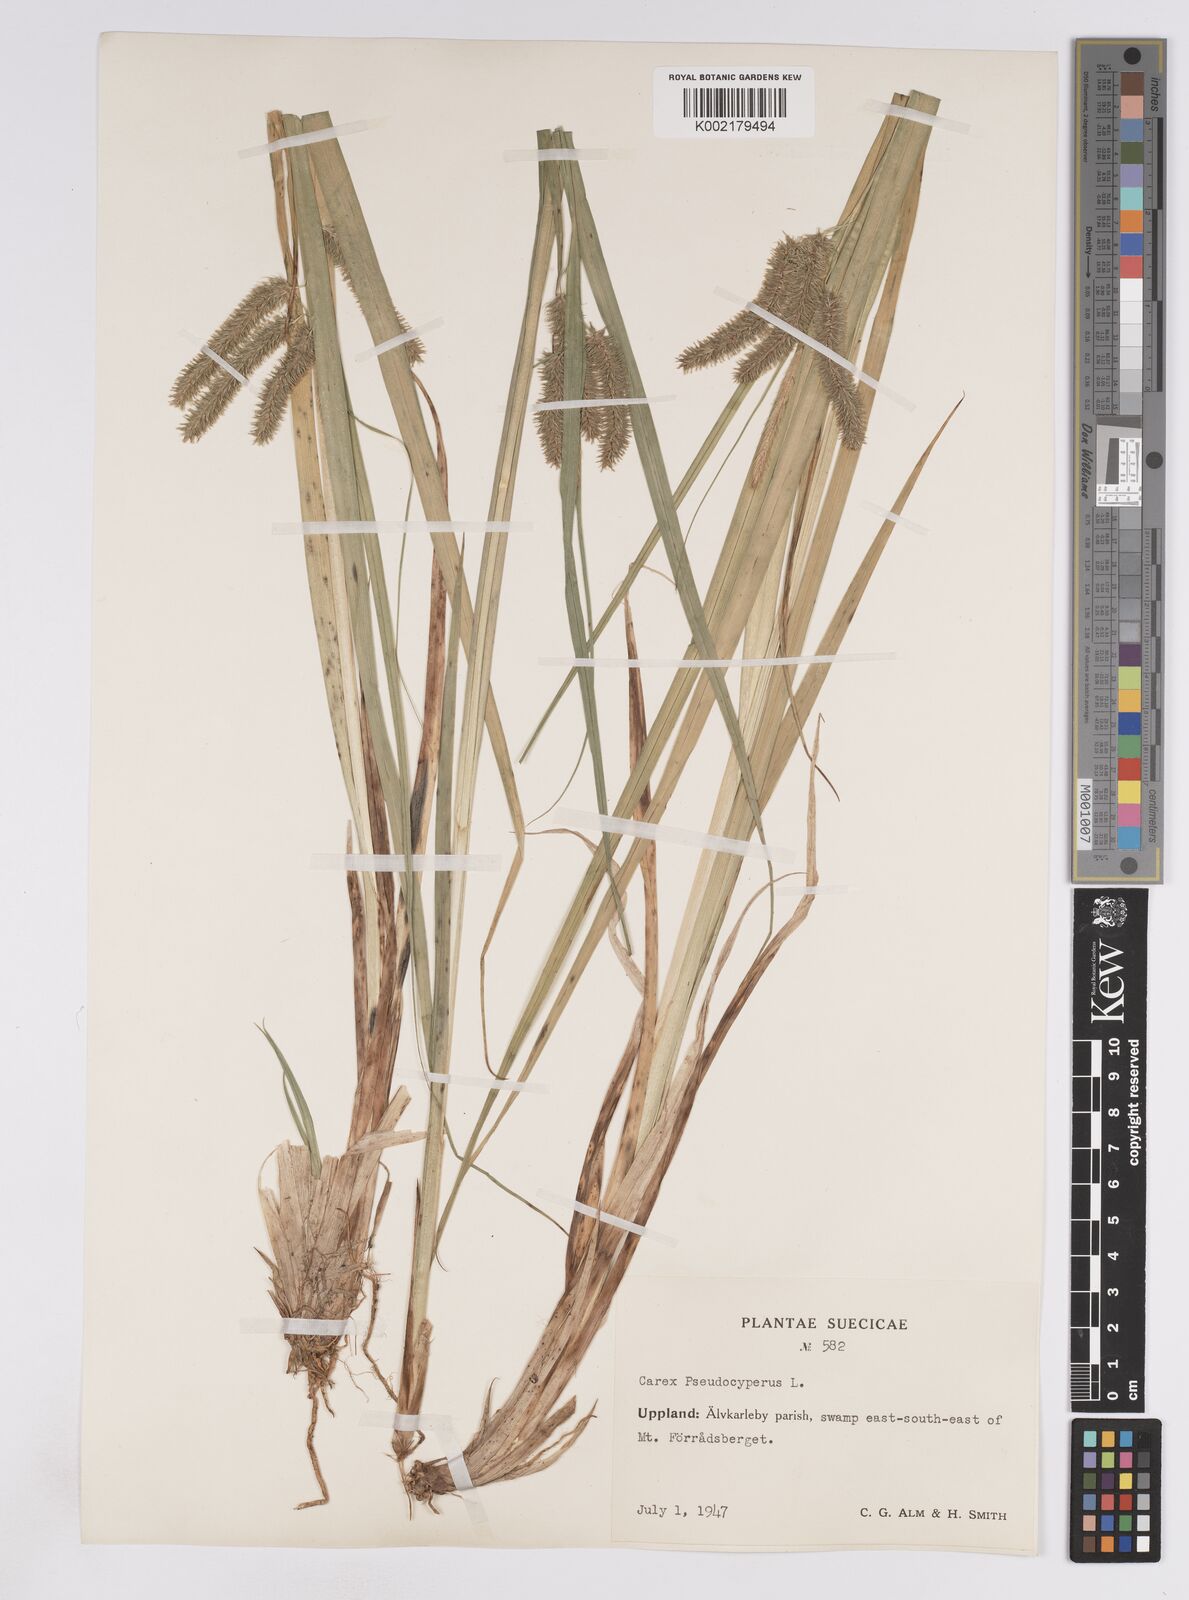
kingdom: Plantae
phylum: Tracheophyta
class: Liliopsida
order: Poales
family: Cyperaceae
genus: Carex
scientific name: Carex pseudocyperus
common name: Cyperus sedge
